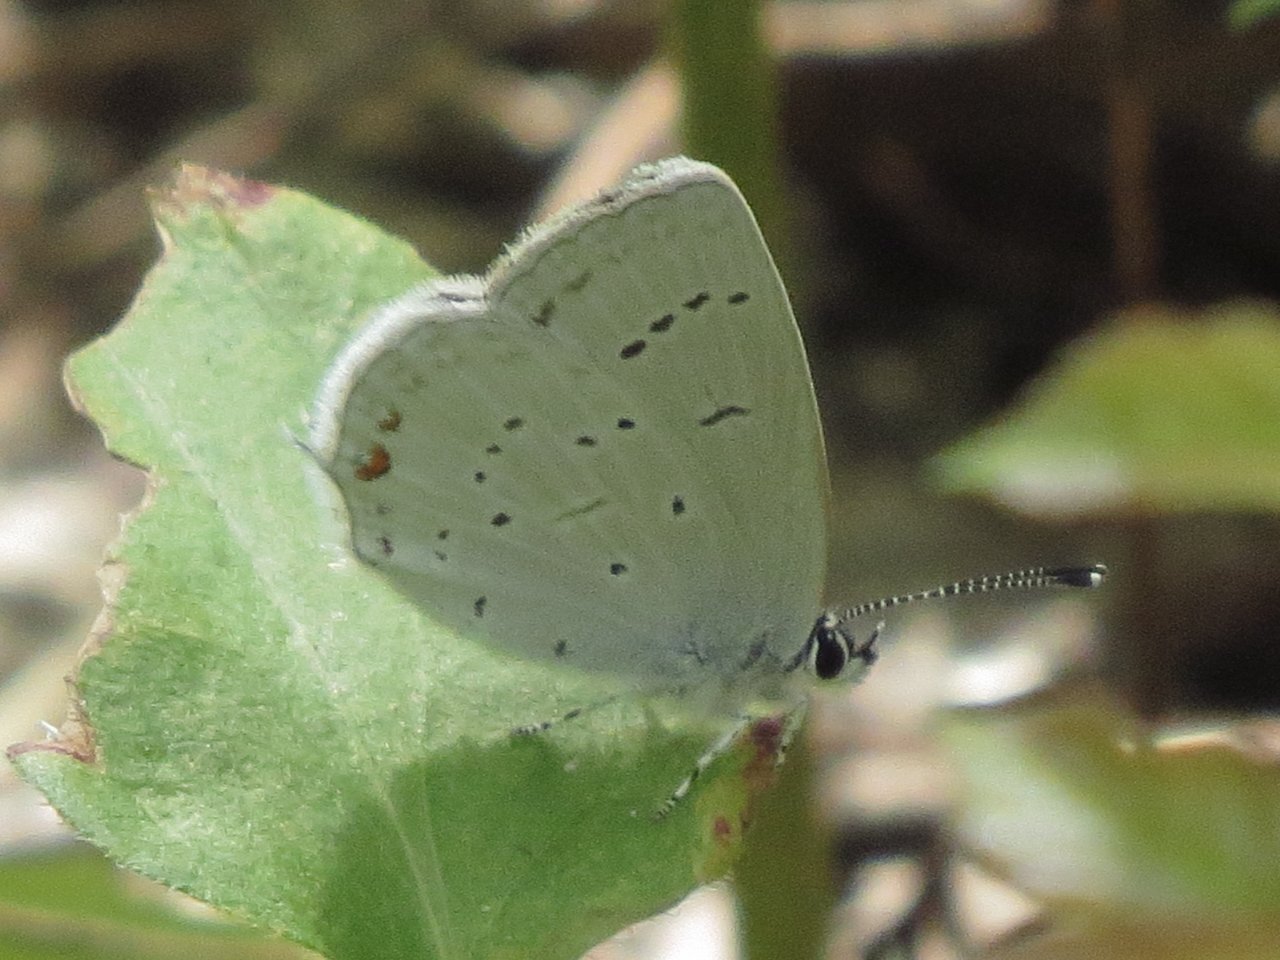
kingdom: Animalia
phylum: Arthropoda
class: Insecta
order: Lepidoptera
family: Lycaenidae
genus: Elkalyce
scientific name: Elkalyce amyntula
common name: Western Tailed-Blue
